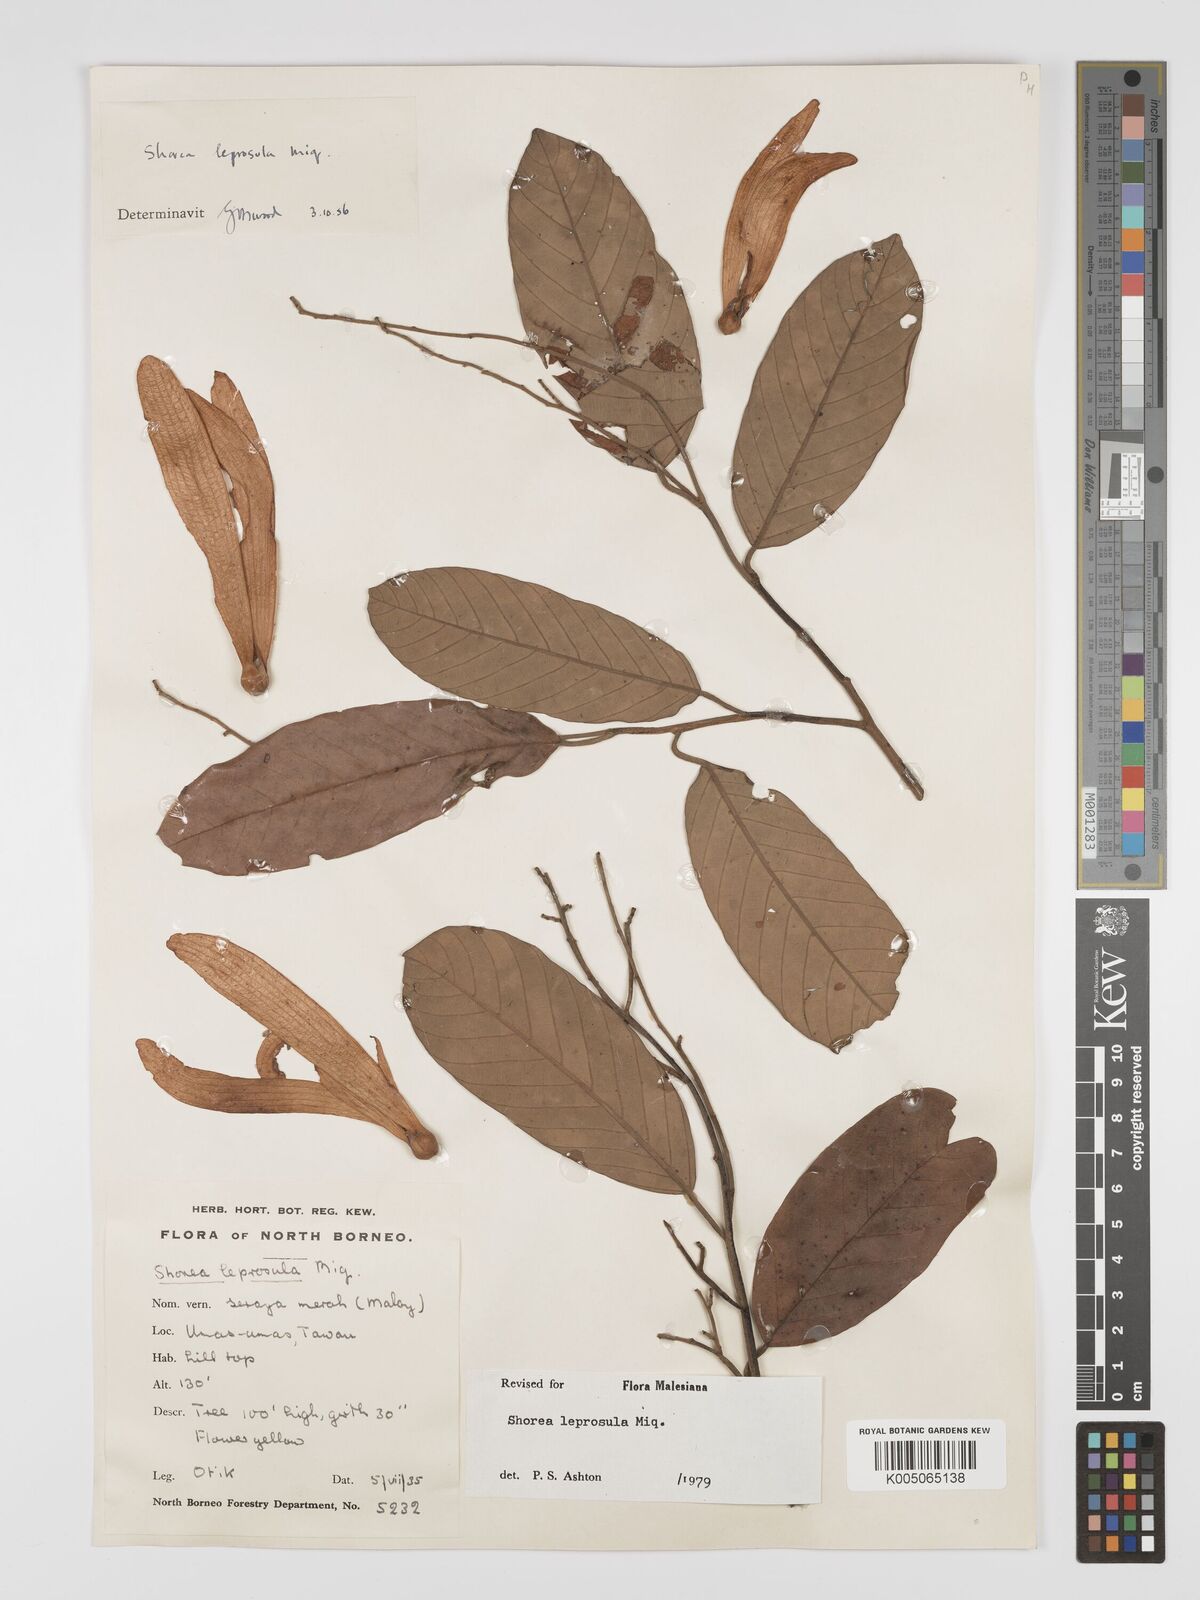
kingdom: Plantae
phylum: Tracheophyta
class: Magnoliopsida
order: Malvales
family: Dipterocarpaceae
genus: Shorea
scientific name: Shorea leprosula
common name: Light red meranti
